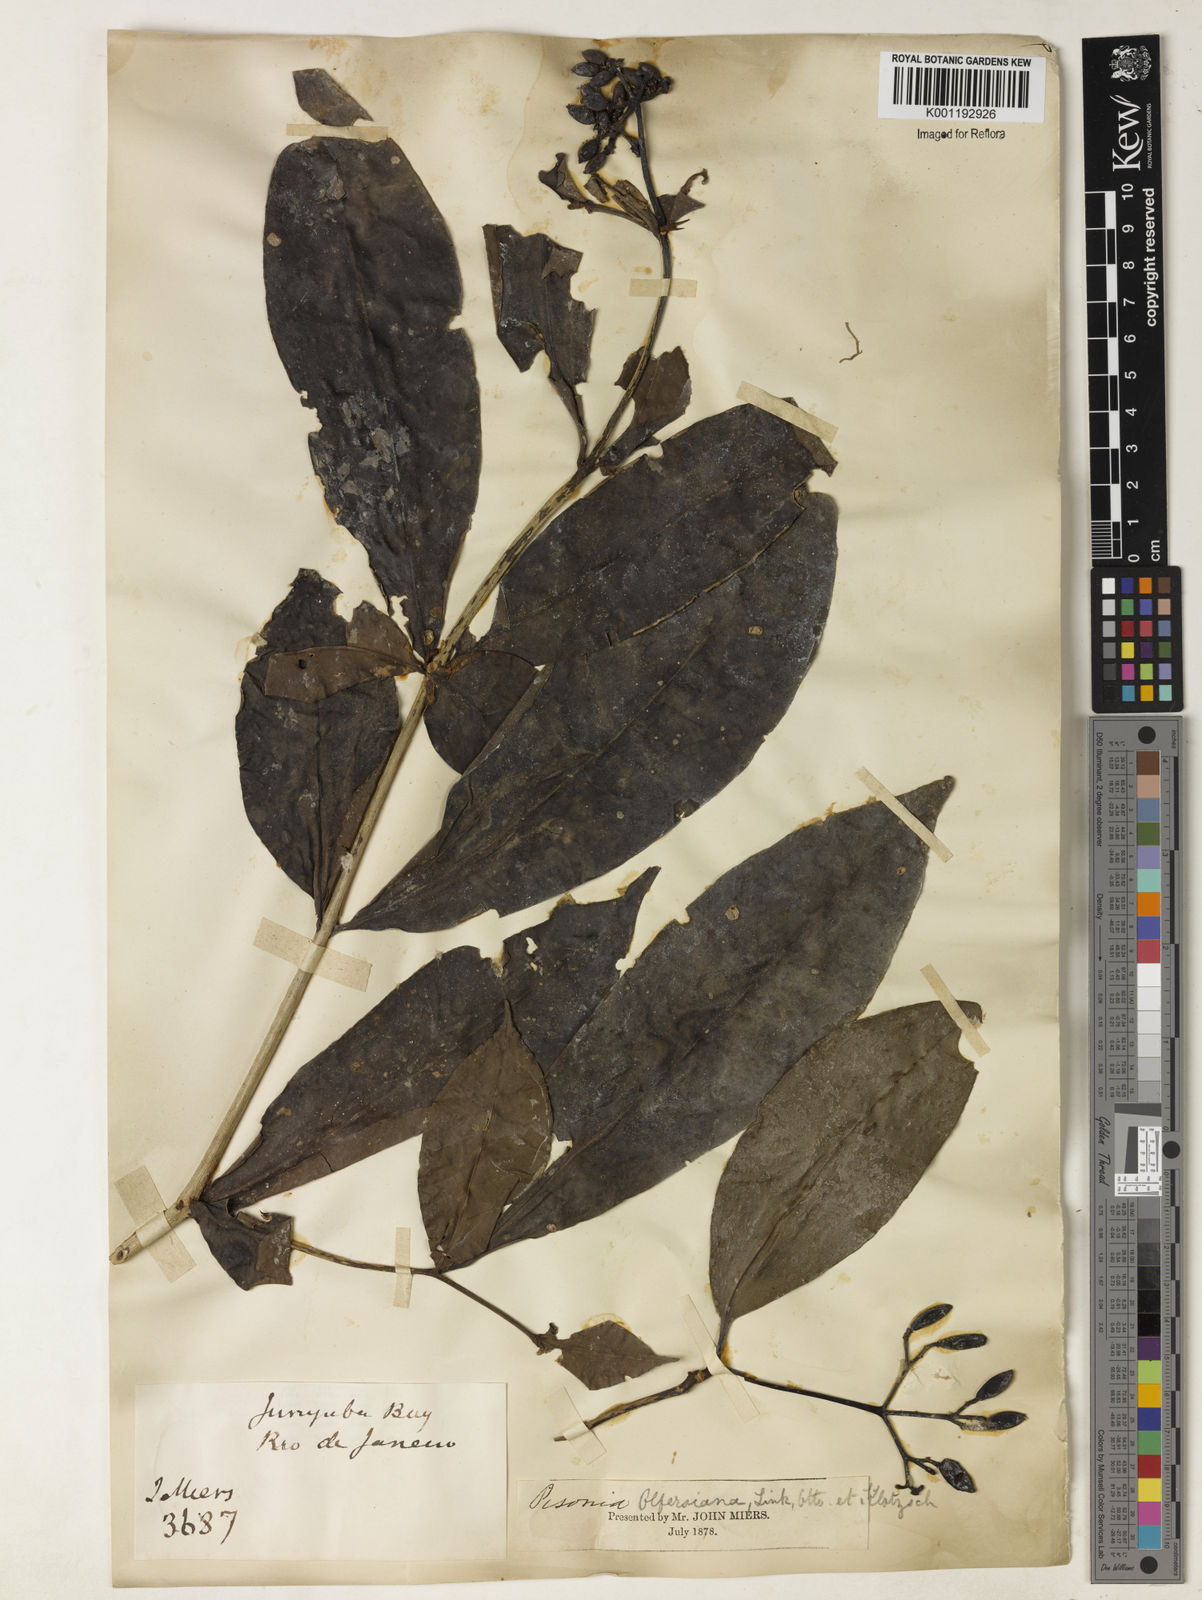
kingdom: Plantae
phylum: Tracheophyta
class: Magnoliopsida
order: Caryophyllales
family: Nyctaginaceae
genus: Guapira
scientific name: Guapira
